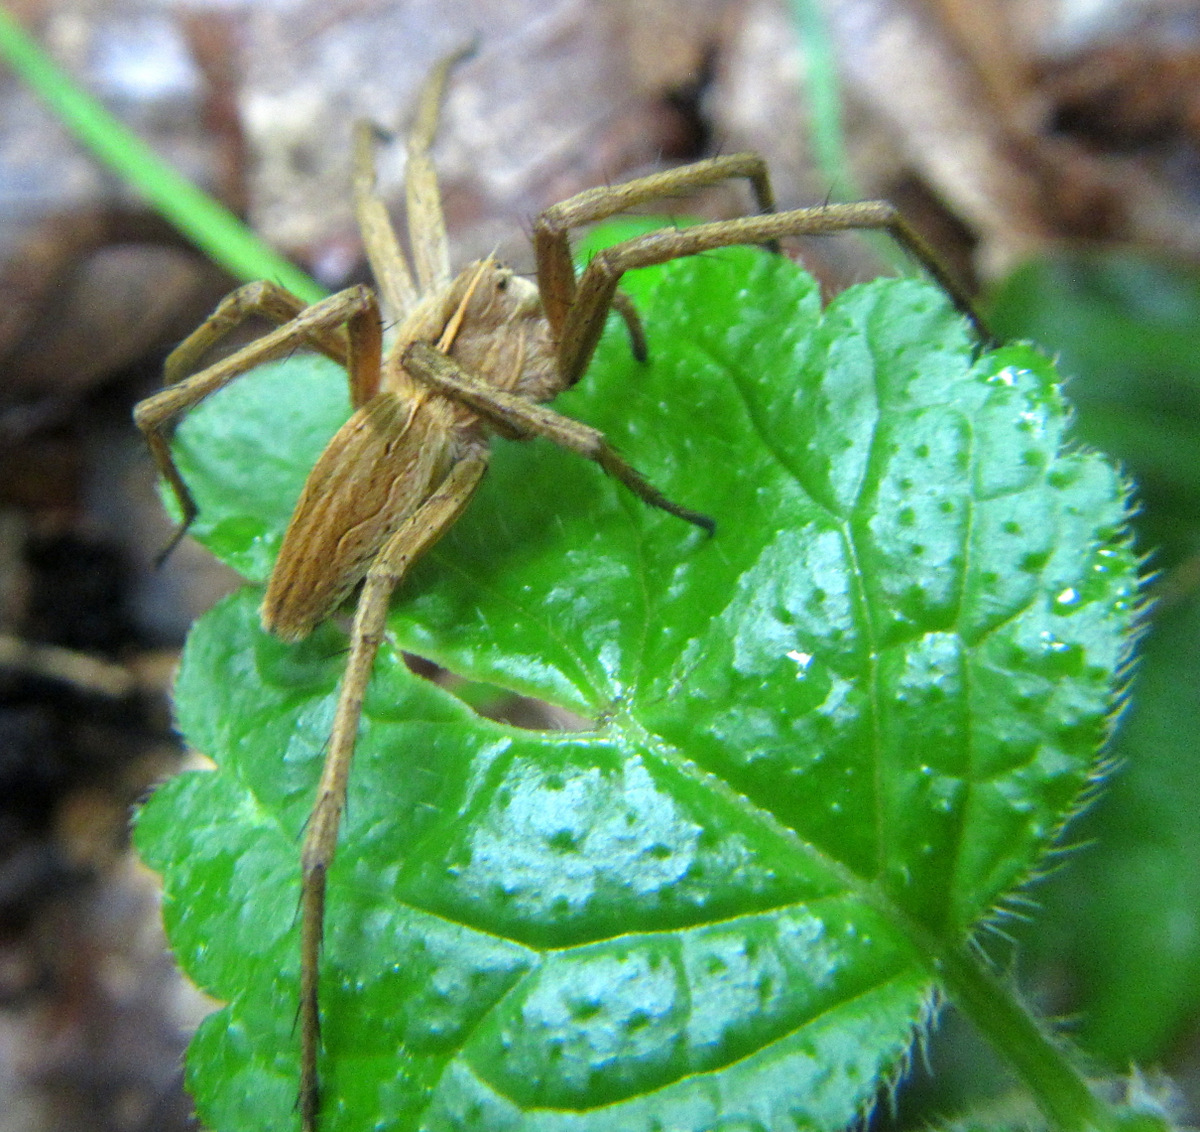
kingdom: Animalia
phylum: Arthropoda
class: Arachnida
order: Araneae
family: Pisauridae
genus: Pisaura
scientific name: Pisaura
